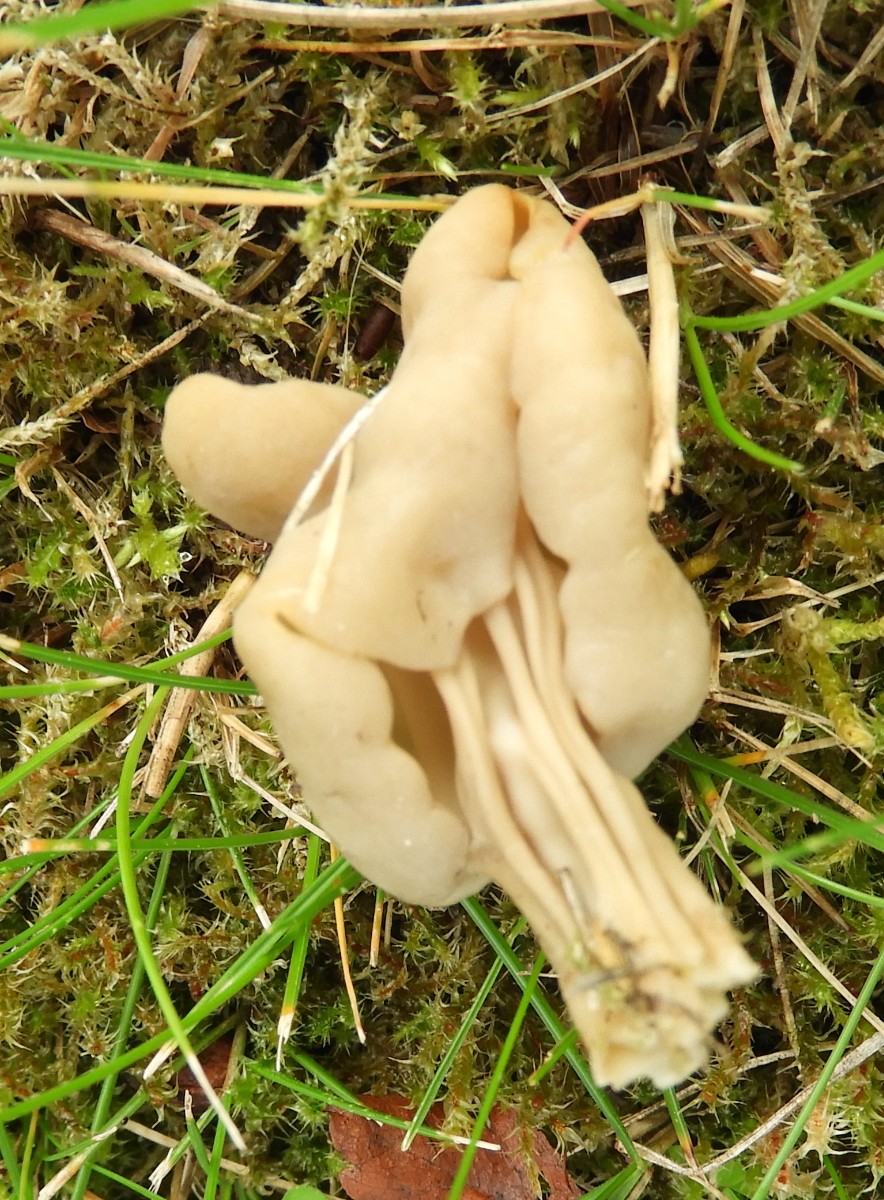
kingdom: Fungi
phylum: Ascomycota
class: Pezizomycetes
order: Pezizales
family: Helvellaceae
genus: Helvella
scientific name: Helvella
